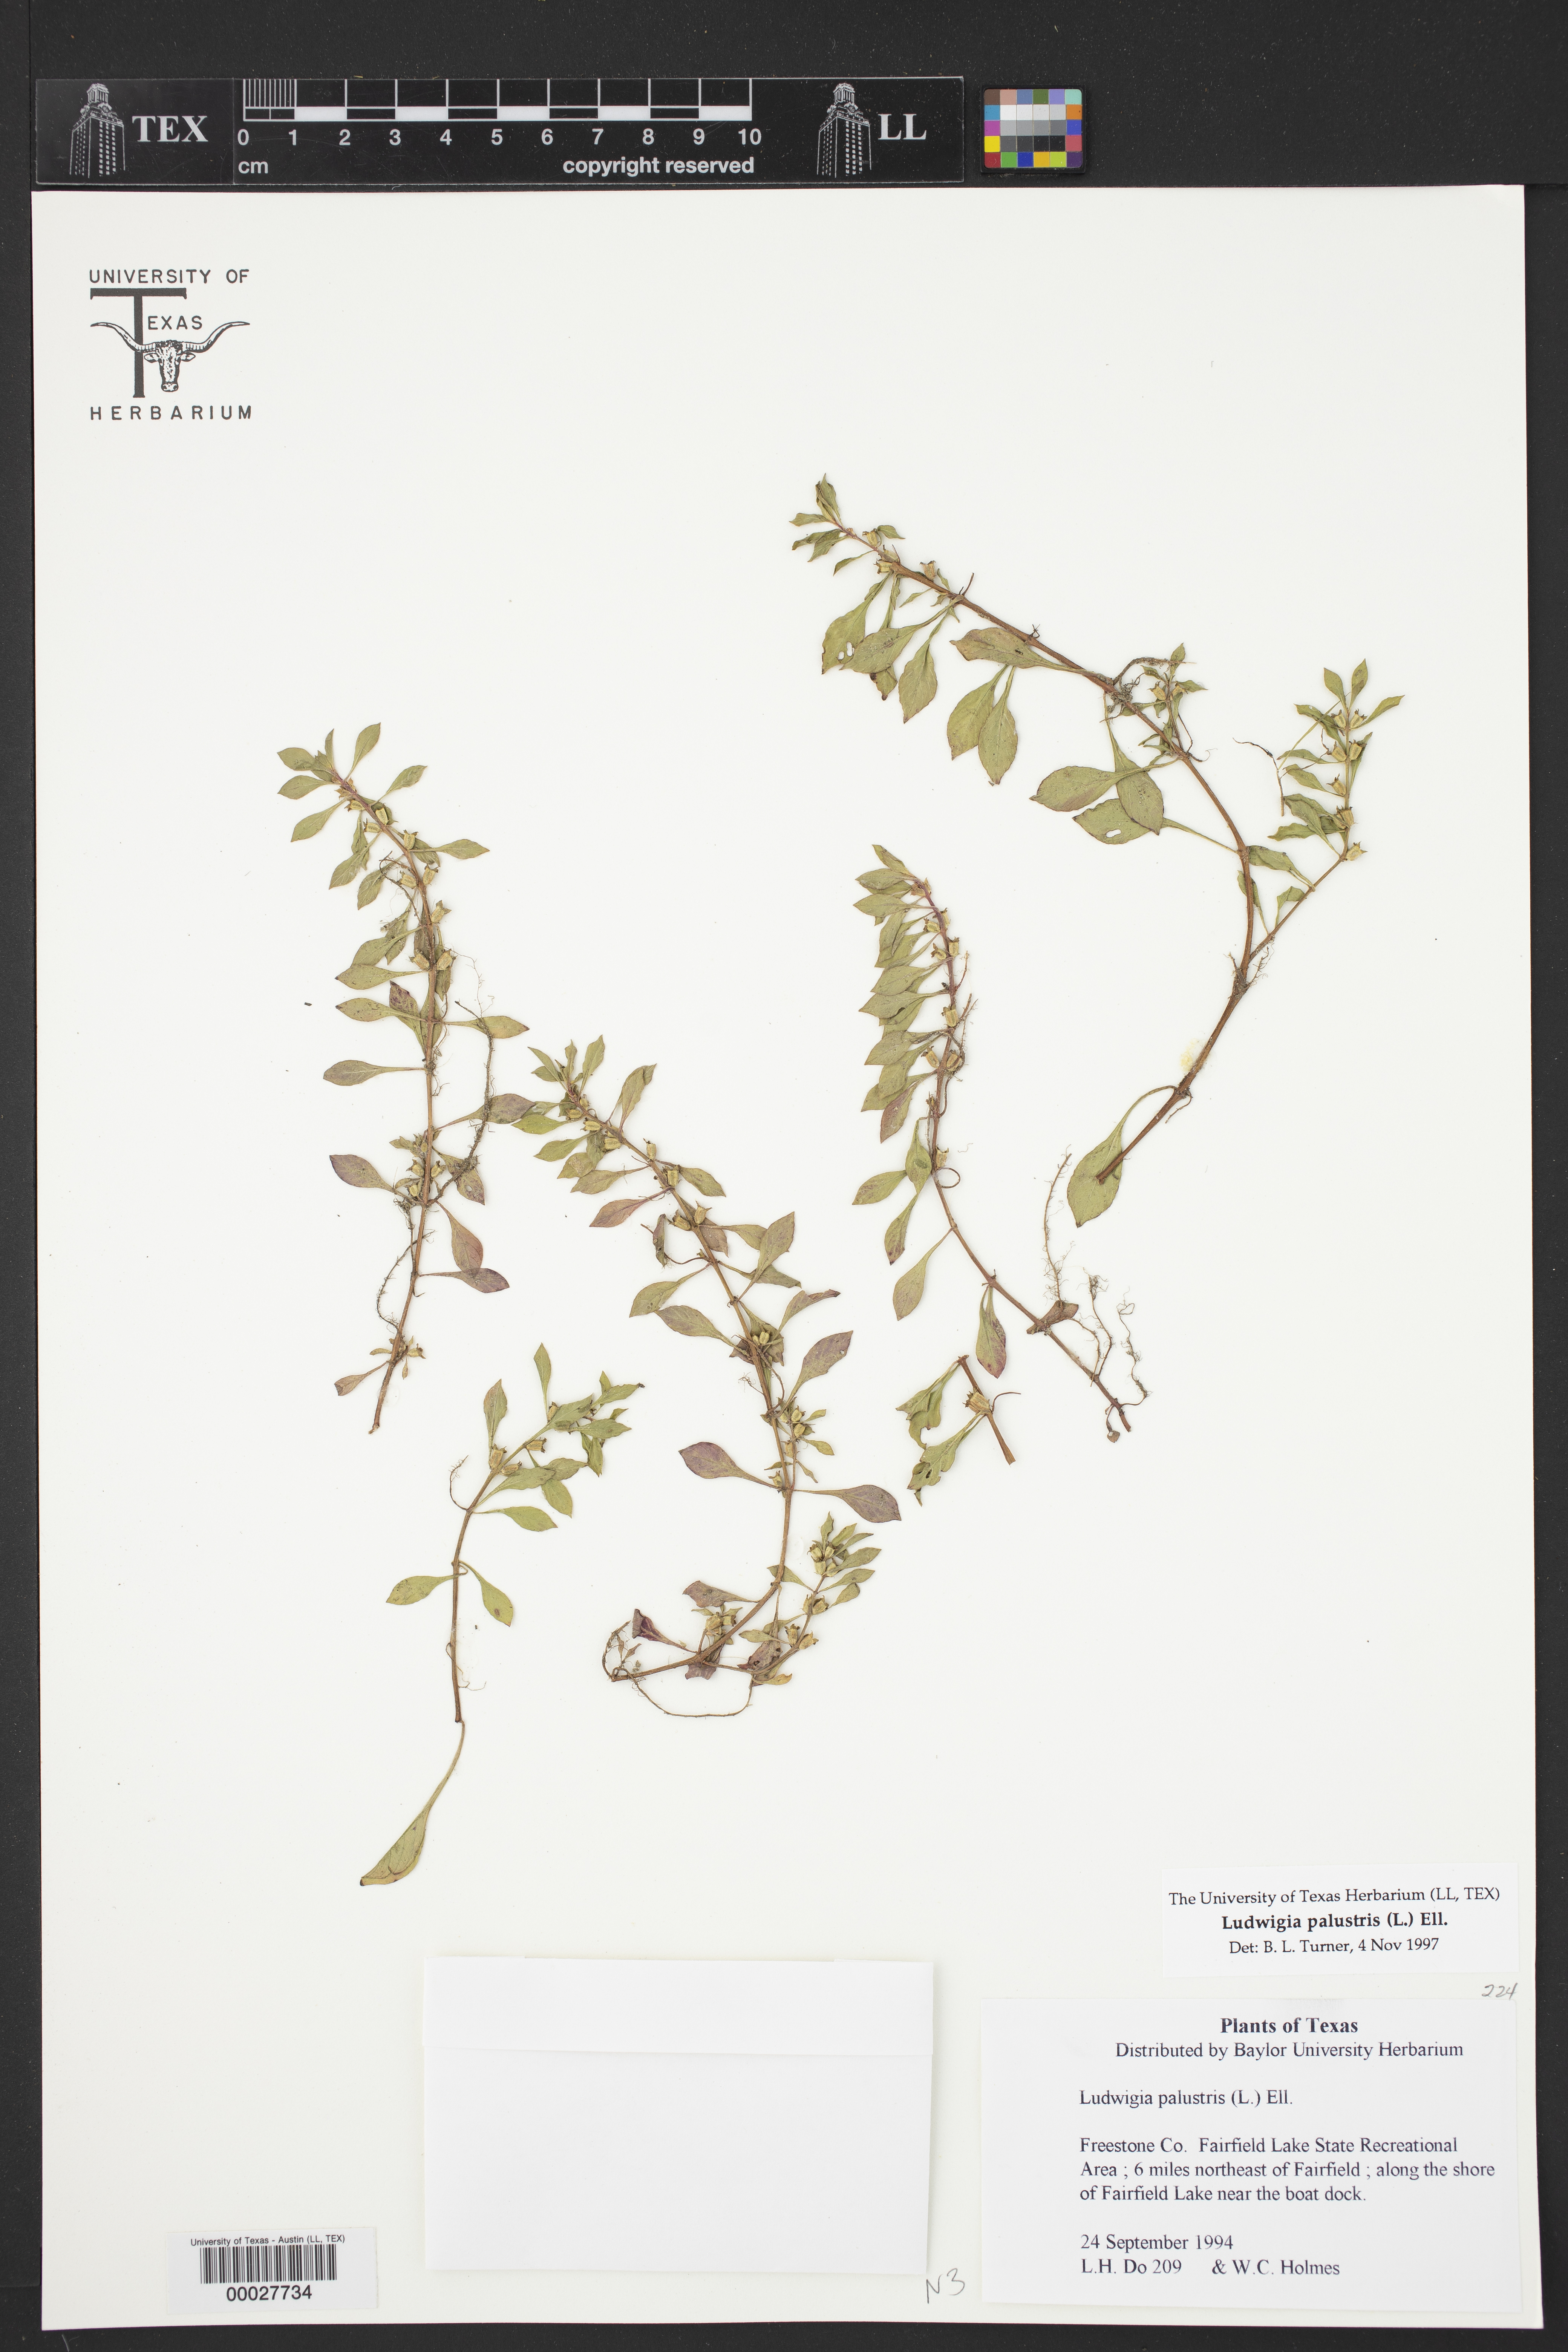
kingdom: Plantae
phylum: Tracheophyta
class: Magnoliopsida
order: Myrtales
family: Onagraceae
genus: Ludwigia
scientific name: Ludwigia palustris
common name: Hampshire-purslane
